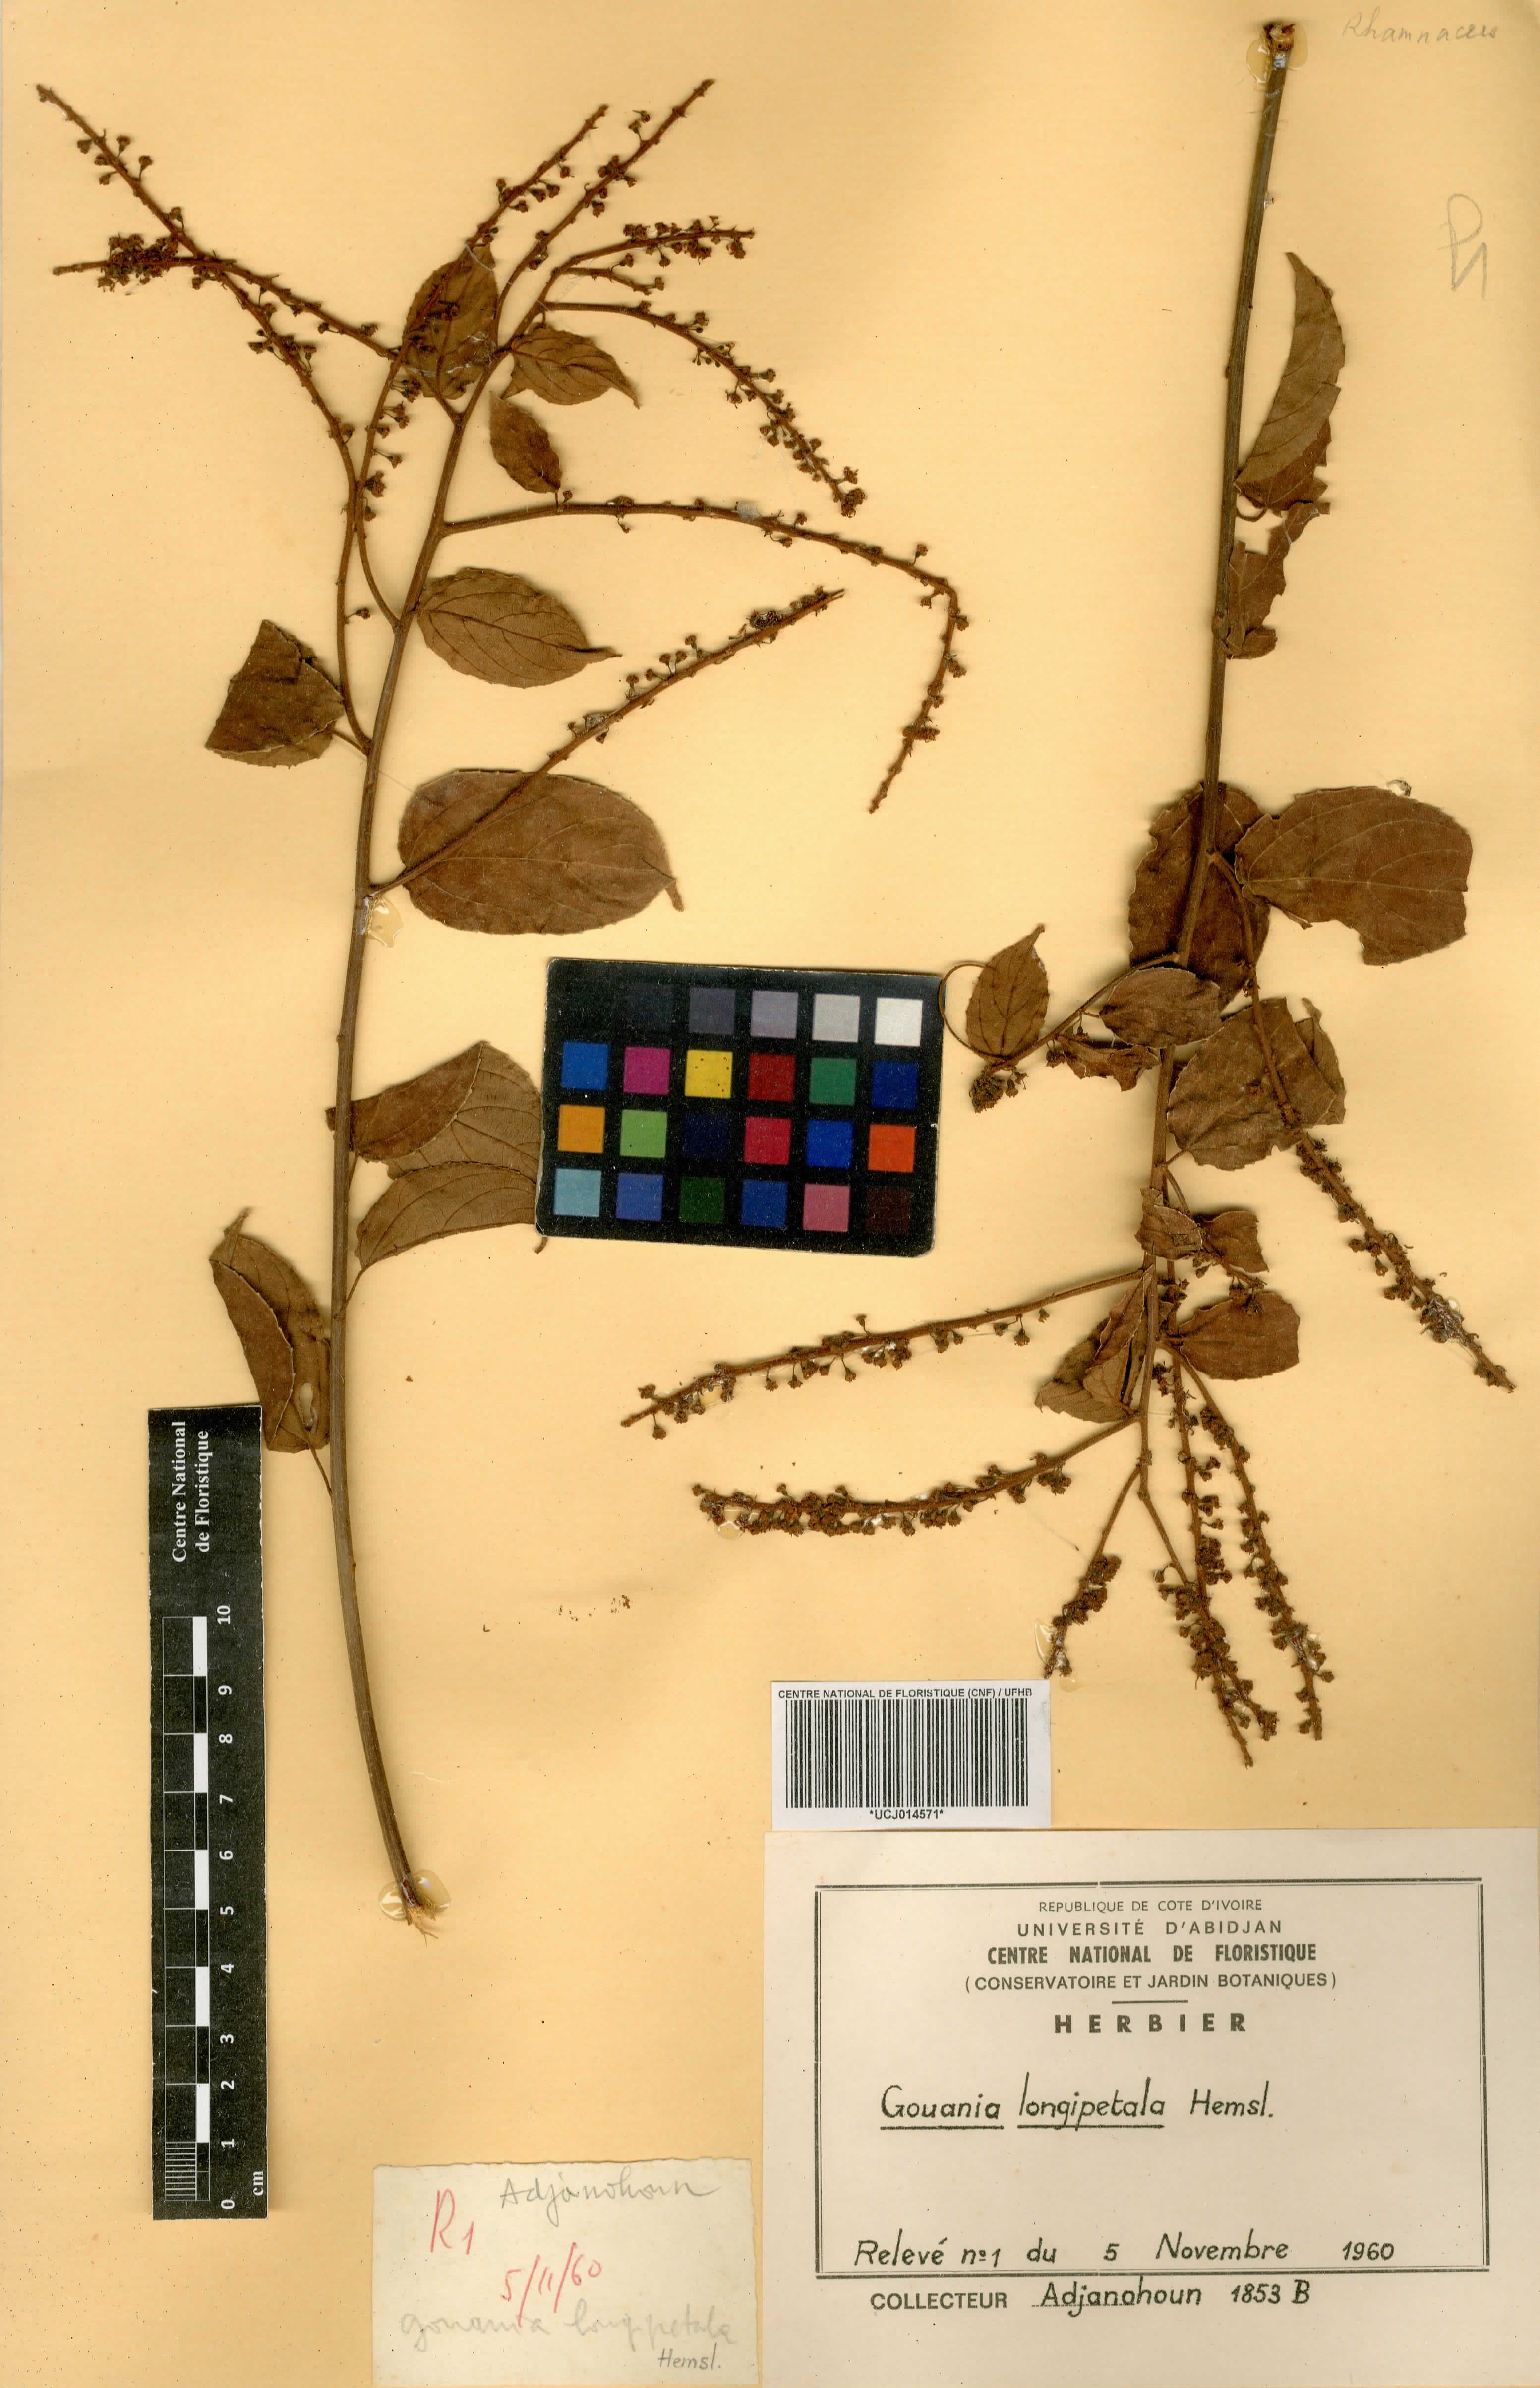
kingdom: Plantae
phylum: Tracheophyta
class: Magnoliopsida
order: Rosales
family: Rhamnaceae
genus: Gouania
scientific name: Gouania longipetala
